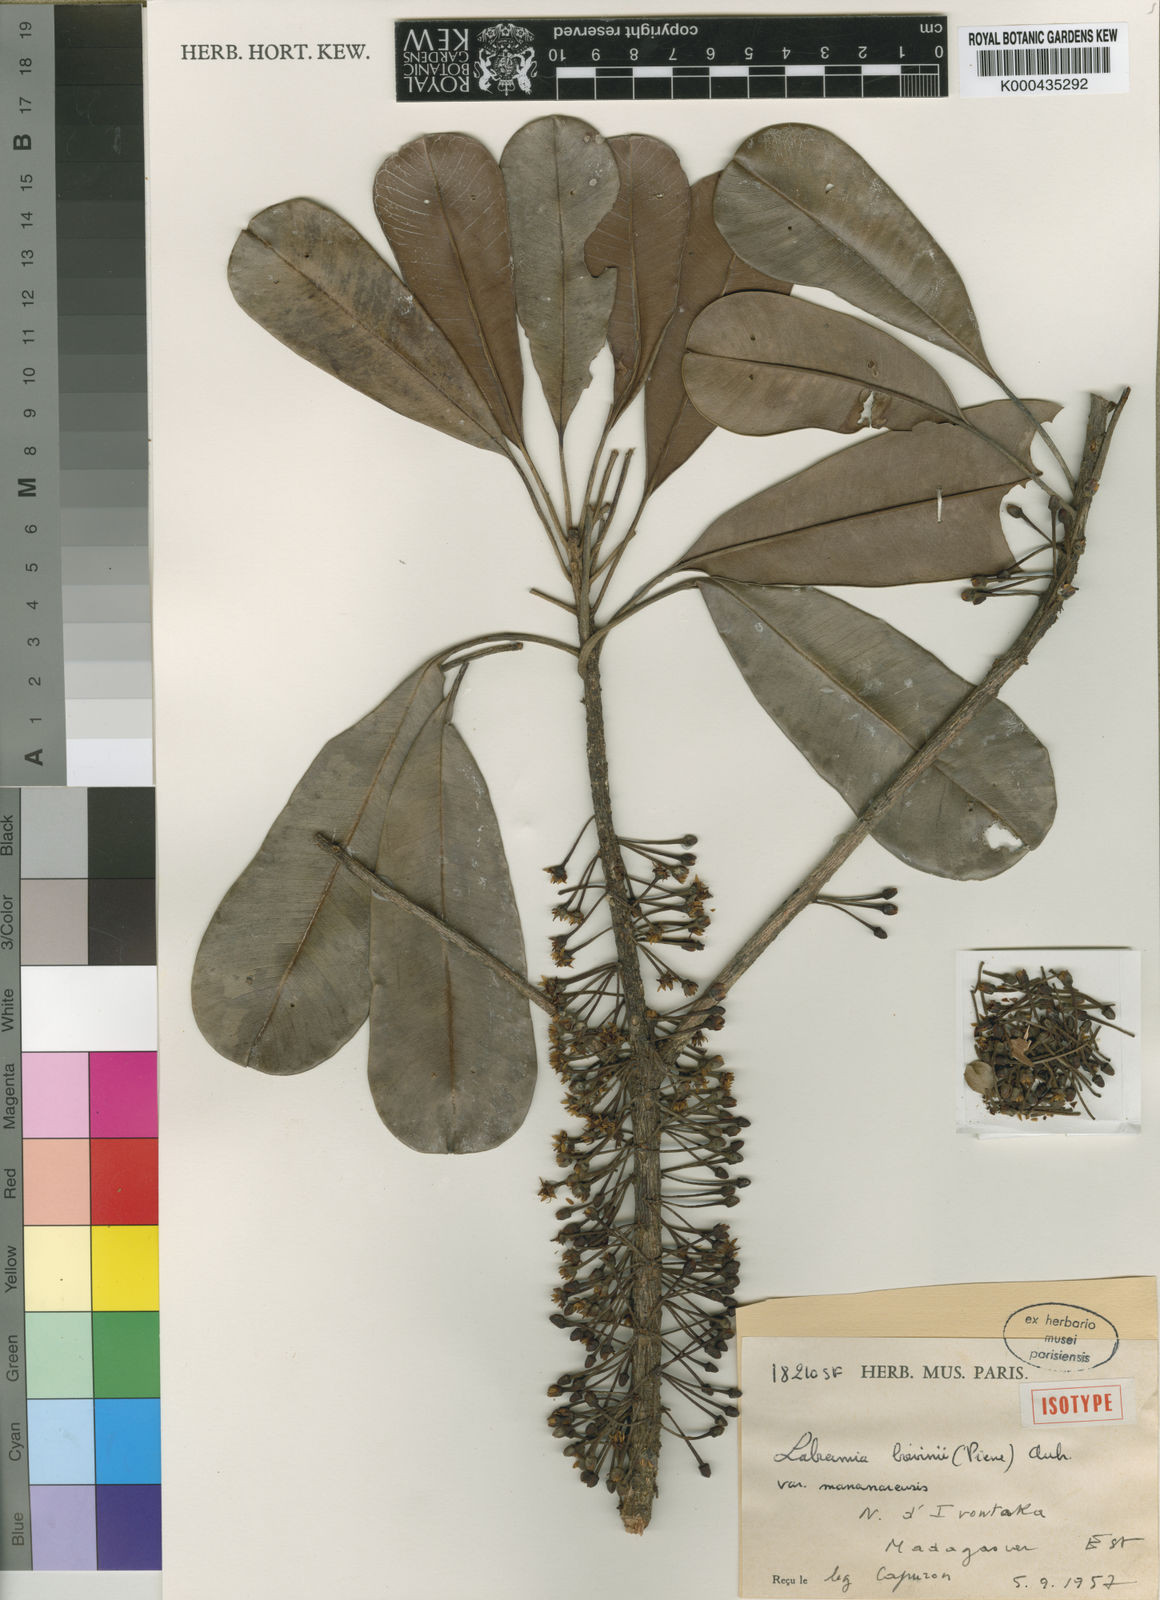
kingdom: Plantae
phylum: Tracheophyta
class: Magnoliopsida
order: Ericales
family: Sapotaceae
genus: Labramia
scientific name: Labramia
